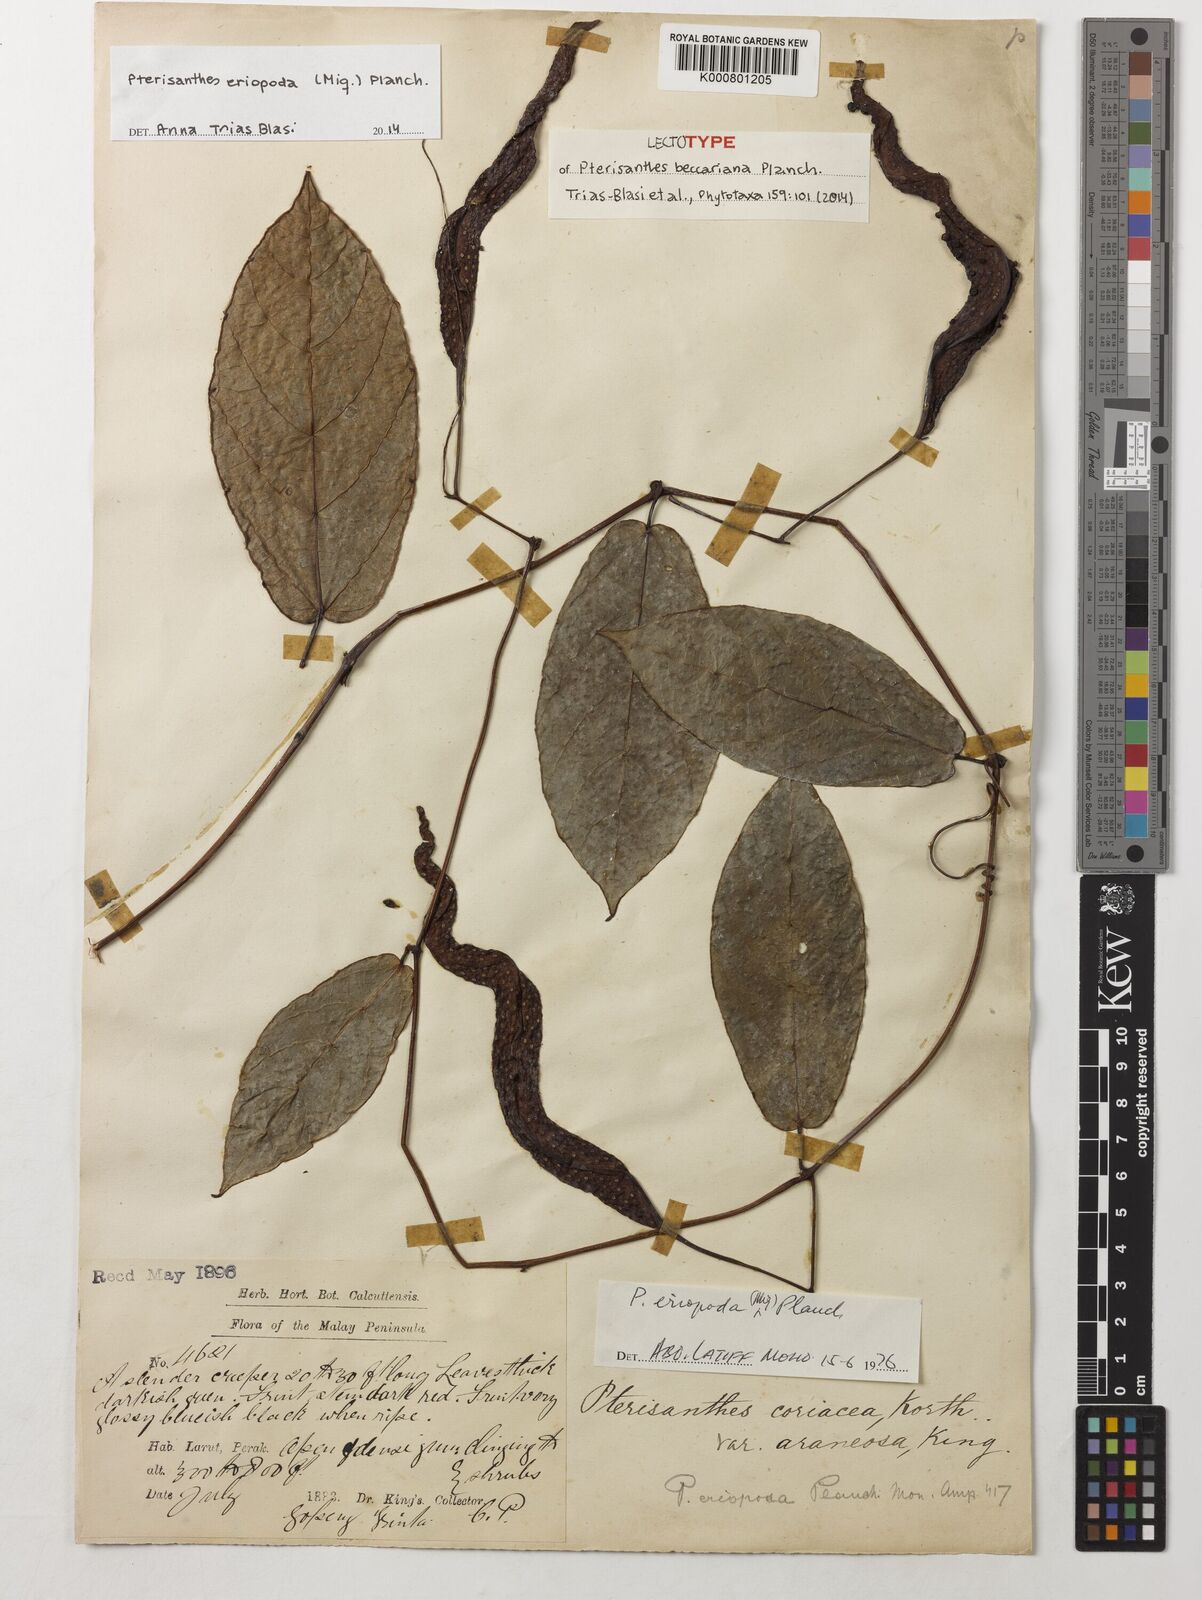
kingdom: Plantae
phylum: Tracheophyta
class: Magnoliopsida
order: Vitales
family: Vitaceae
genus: Pterisanthes
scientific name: Pterisanthes eriopoda
